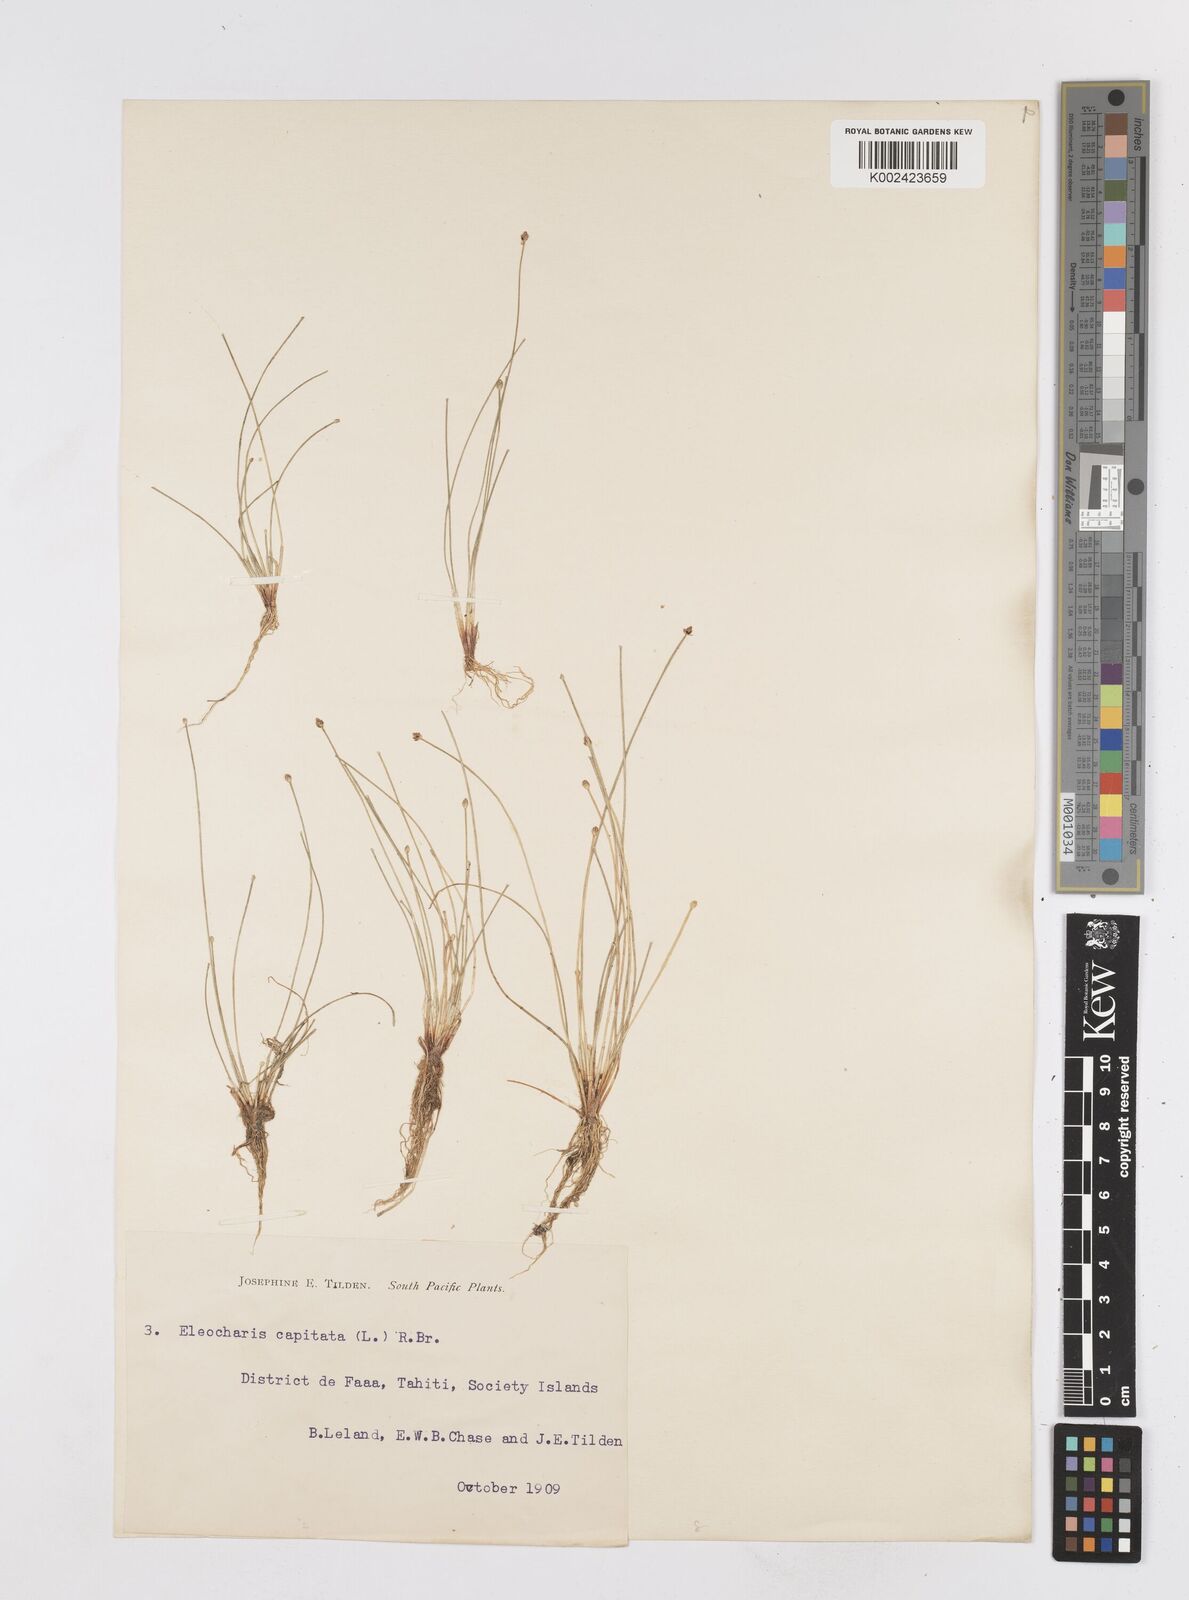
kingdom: Plantae
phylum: Tracheophyta
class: Liliopsida
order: Poales
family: Cyperaceae
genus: Eleocharis
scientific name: Eleocharis erythropoda
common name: Bald spikerush
